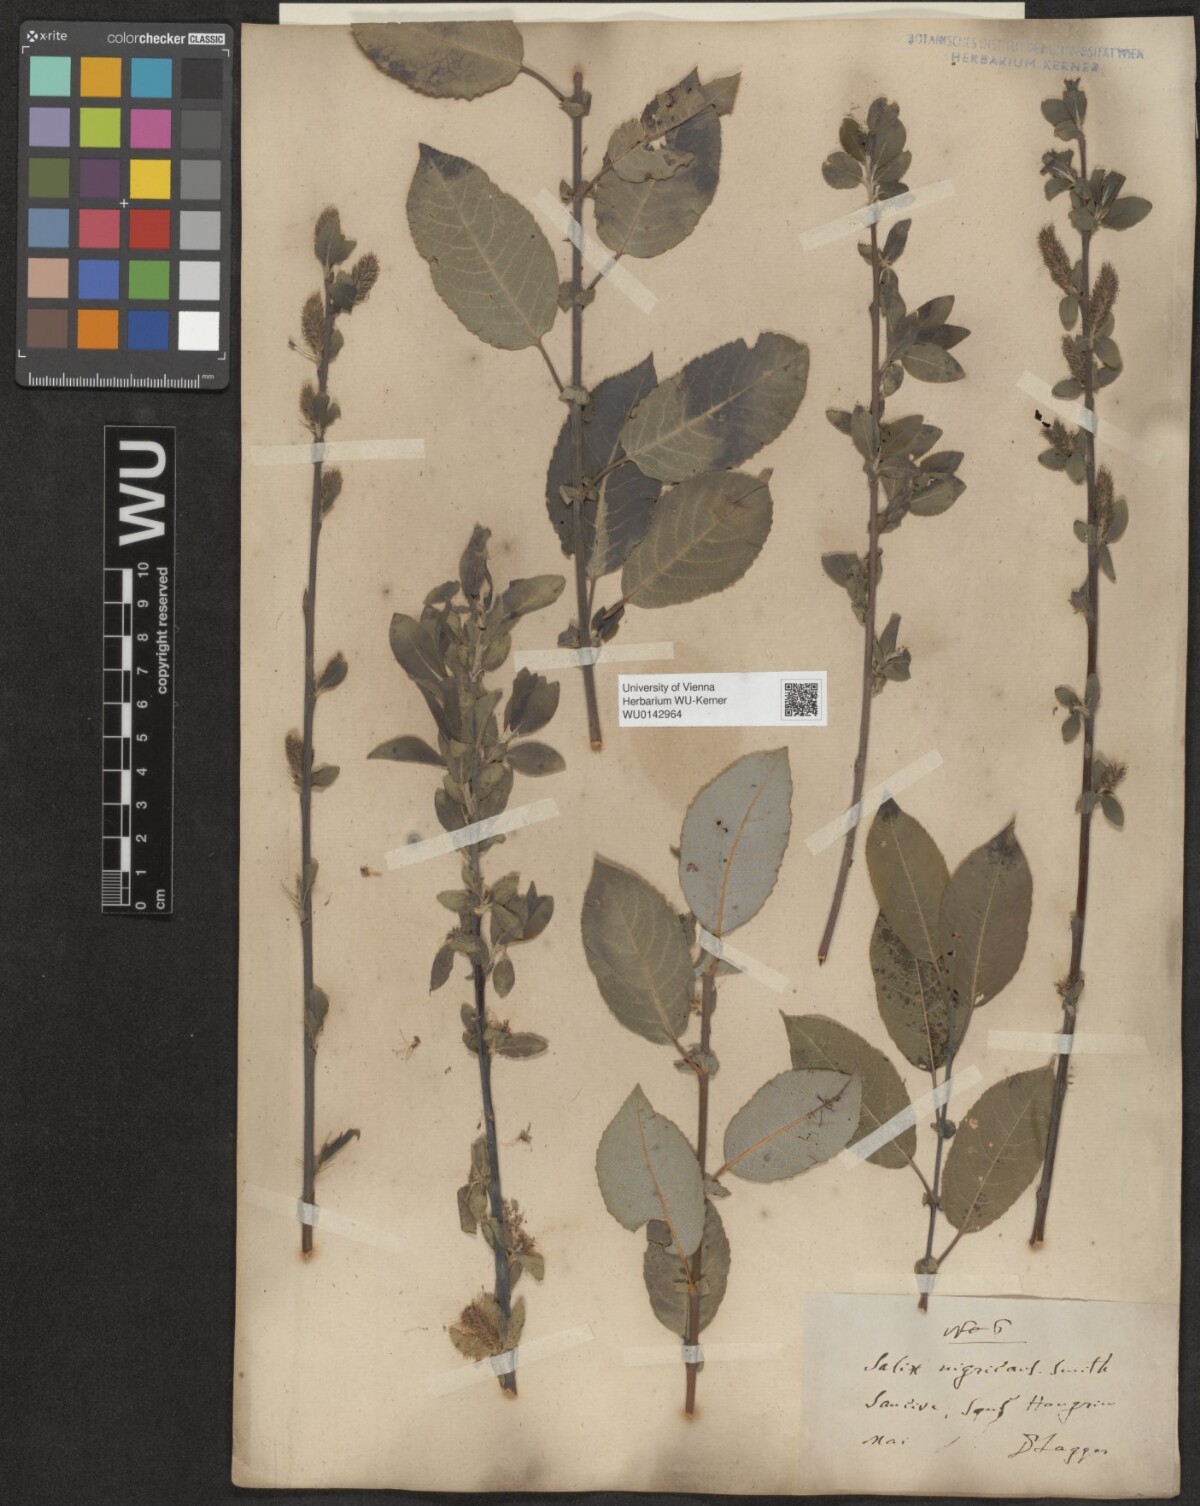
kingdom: Plantae
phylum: Tracheophyta
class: Magnoliopsida
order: Malpighiales
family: Salicaceae
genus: Salix
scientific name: Salix myrsinifolia
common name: Dark-leaved willow
